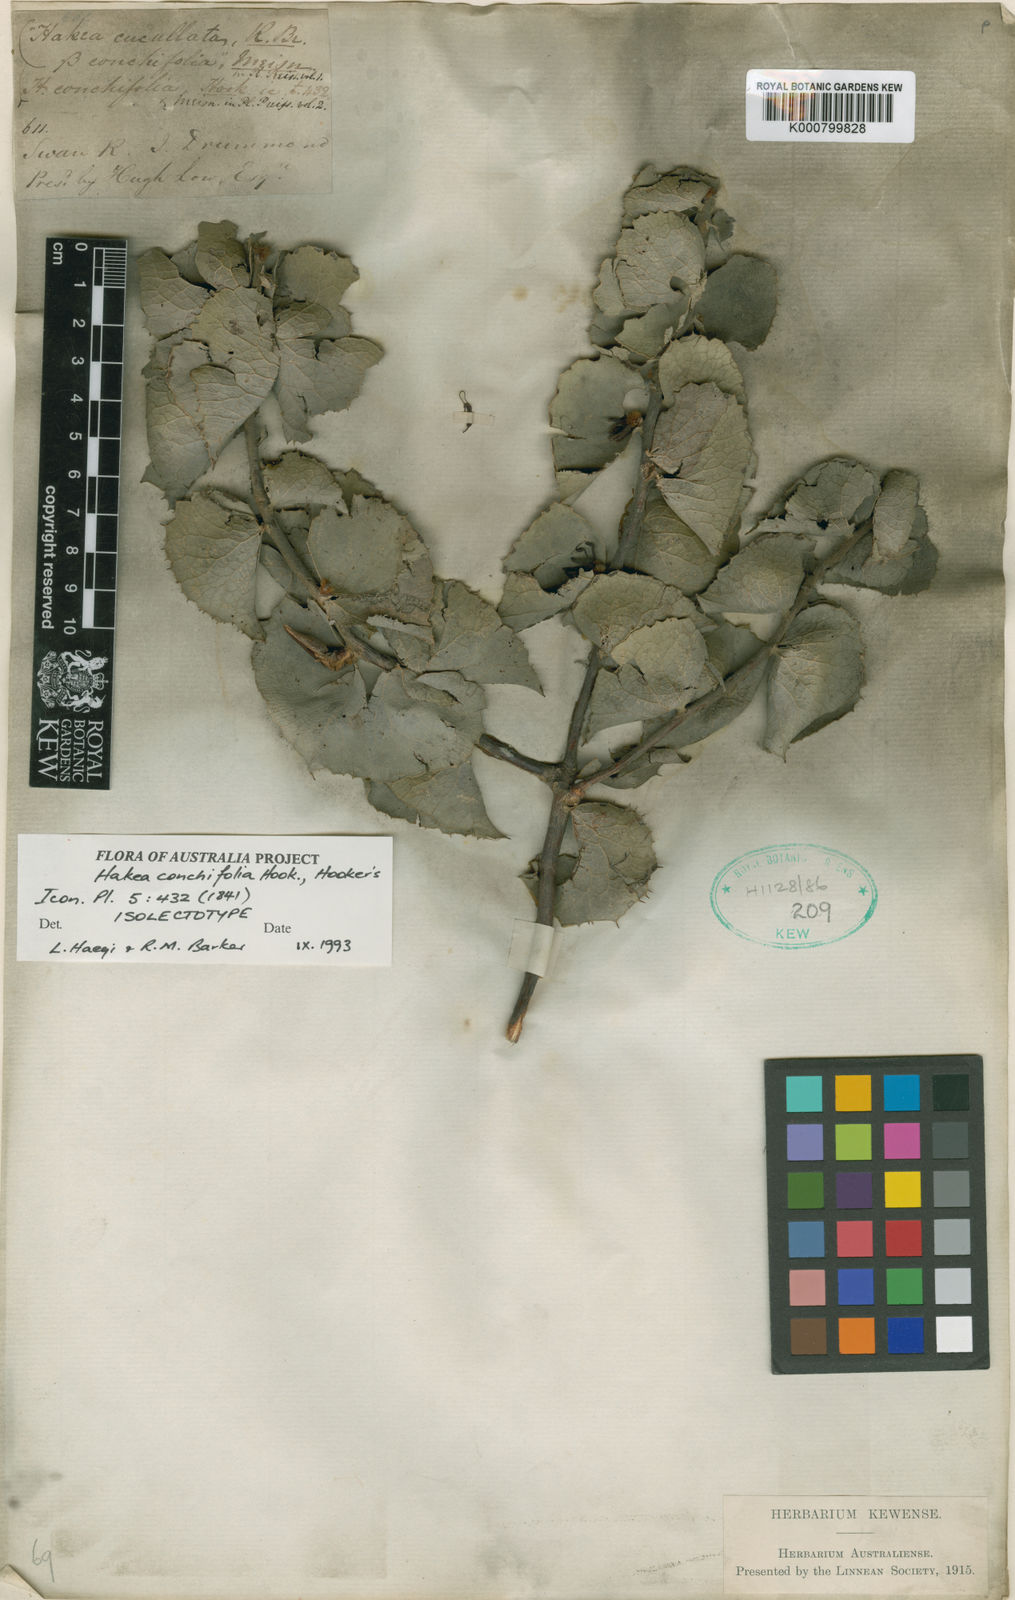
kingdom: Plantae
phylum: Tracheophyta
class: Magnoliopsida
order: Proteales
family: Proteaceae
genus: Hakea
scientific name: Hakea cucullata
